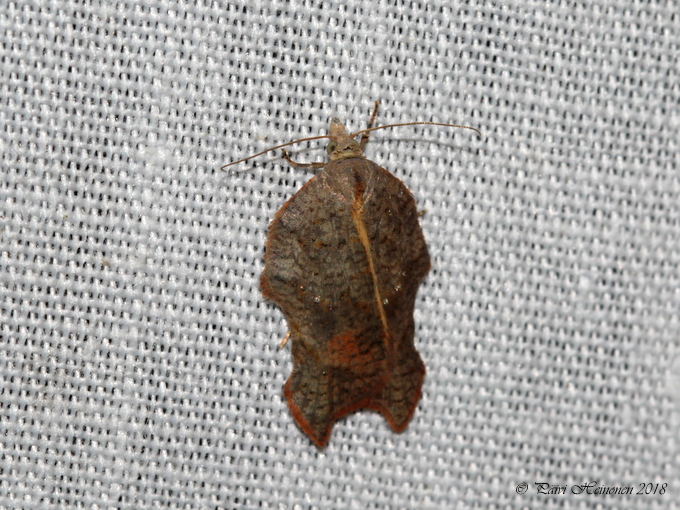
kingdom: Animalia
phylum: Arthropoda
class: Insecta
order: Lepidoptera
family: Tortricidae
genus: Acleris
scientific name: Acleris emargana
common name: Notch-wing button
